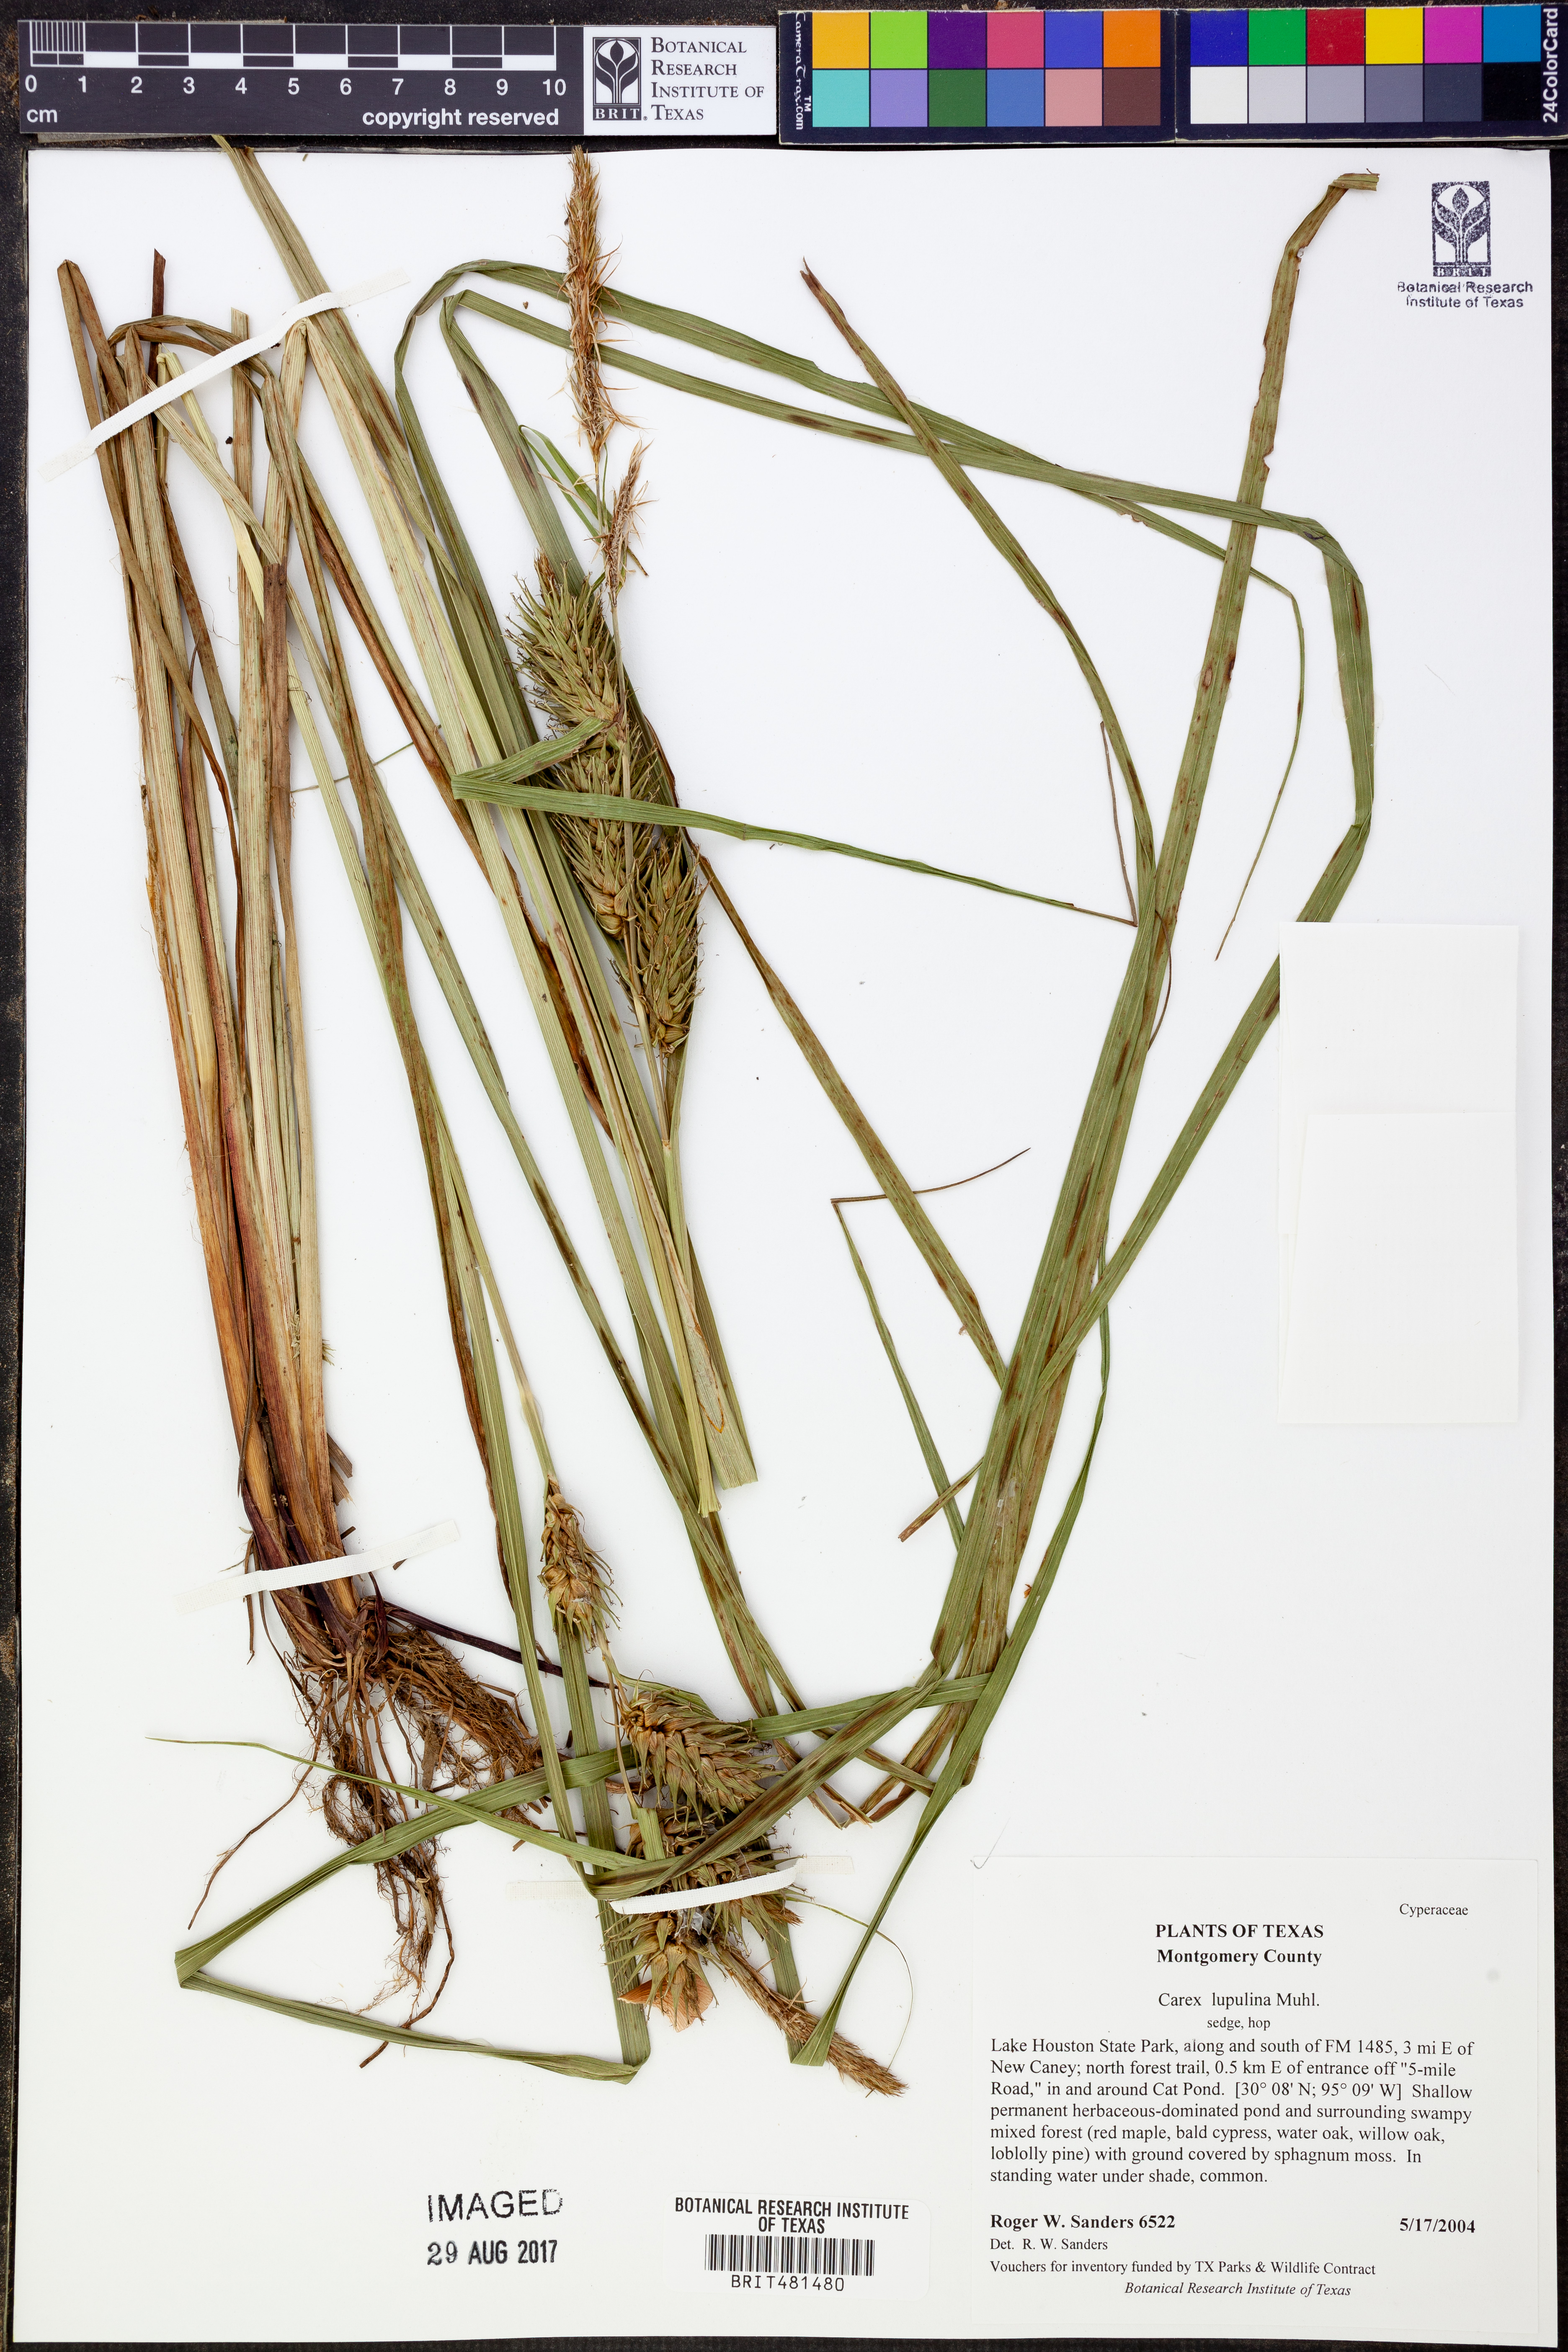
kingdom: Plantae
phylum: Tracheophyta
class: Liliopsida
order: Poales
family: Cyperaceae
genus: Carex
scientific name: Carex lupulina
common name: Hop sedge
